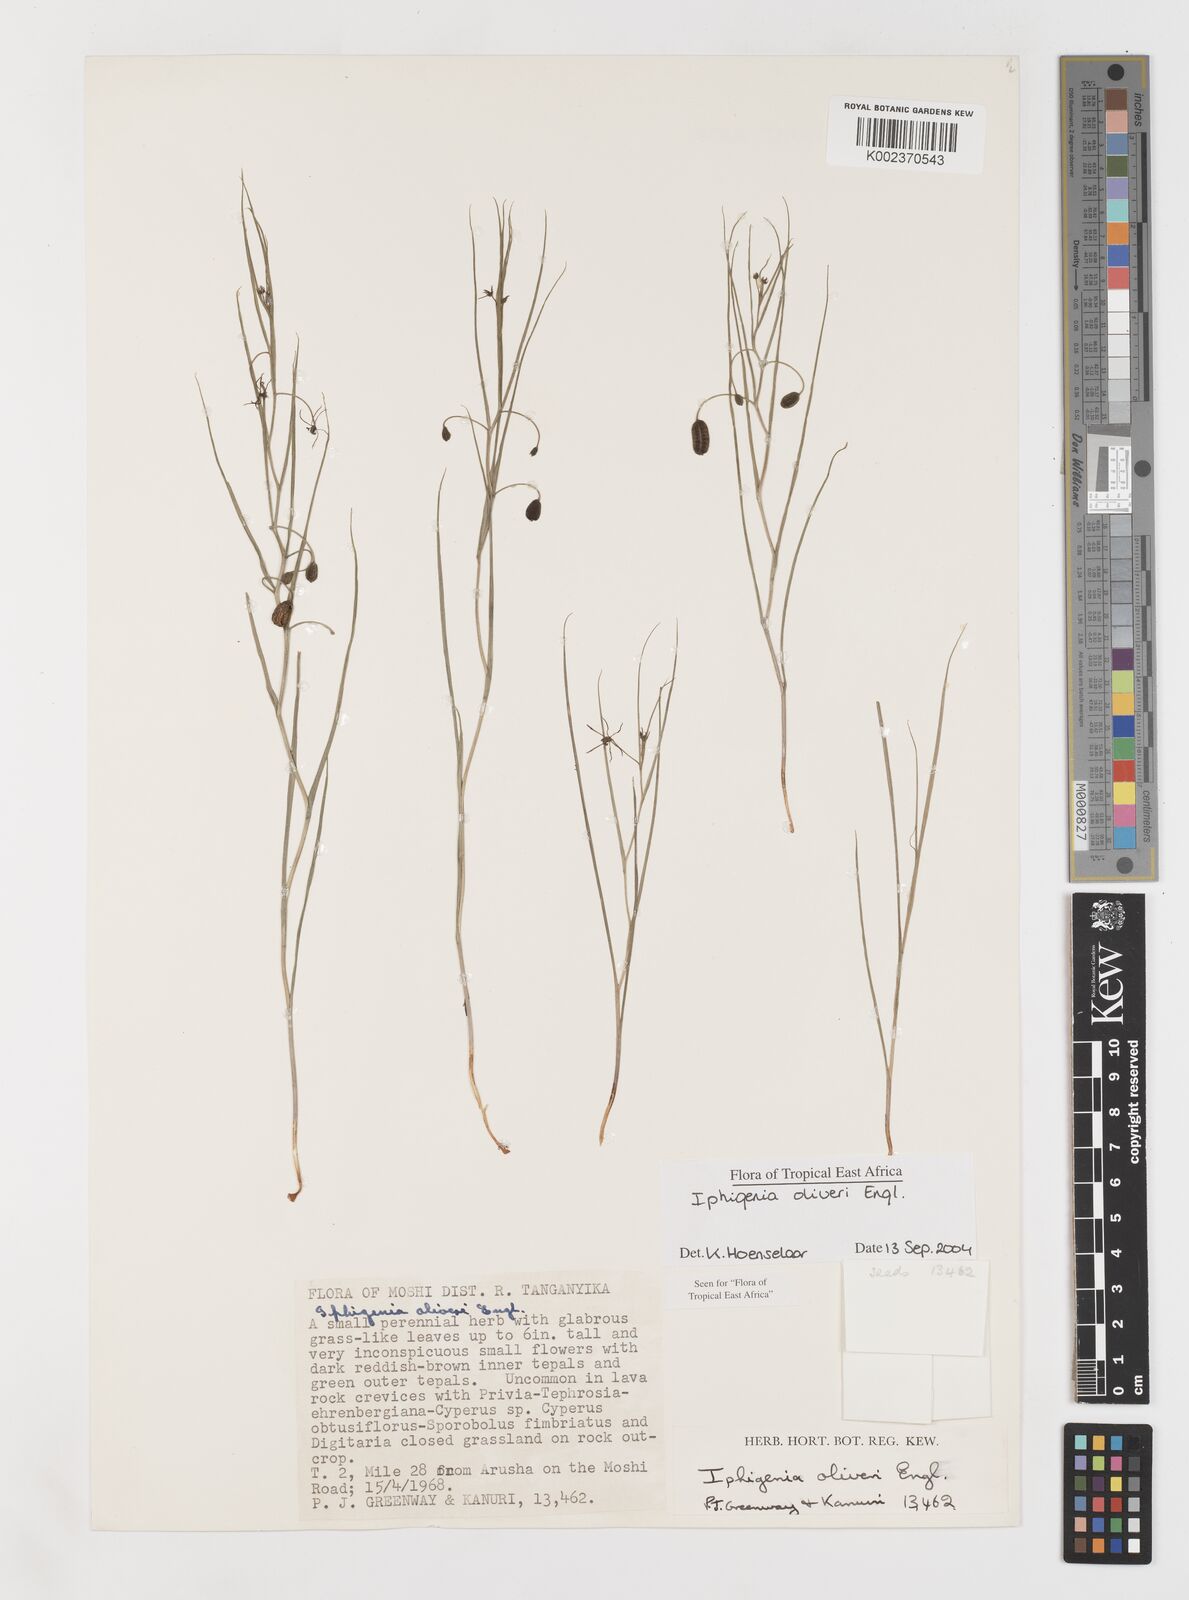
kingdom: Plantae
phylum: Tracheophyta
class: Liliopsida
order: Liliales
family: Colchicaceae
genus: Iphigenia
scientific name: Iphigenia oliveri
